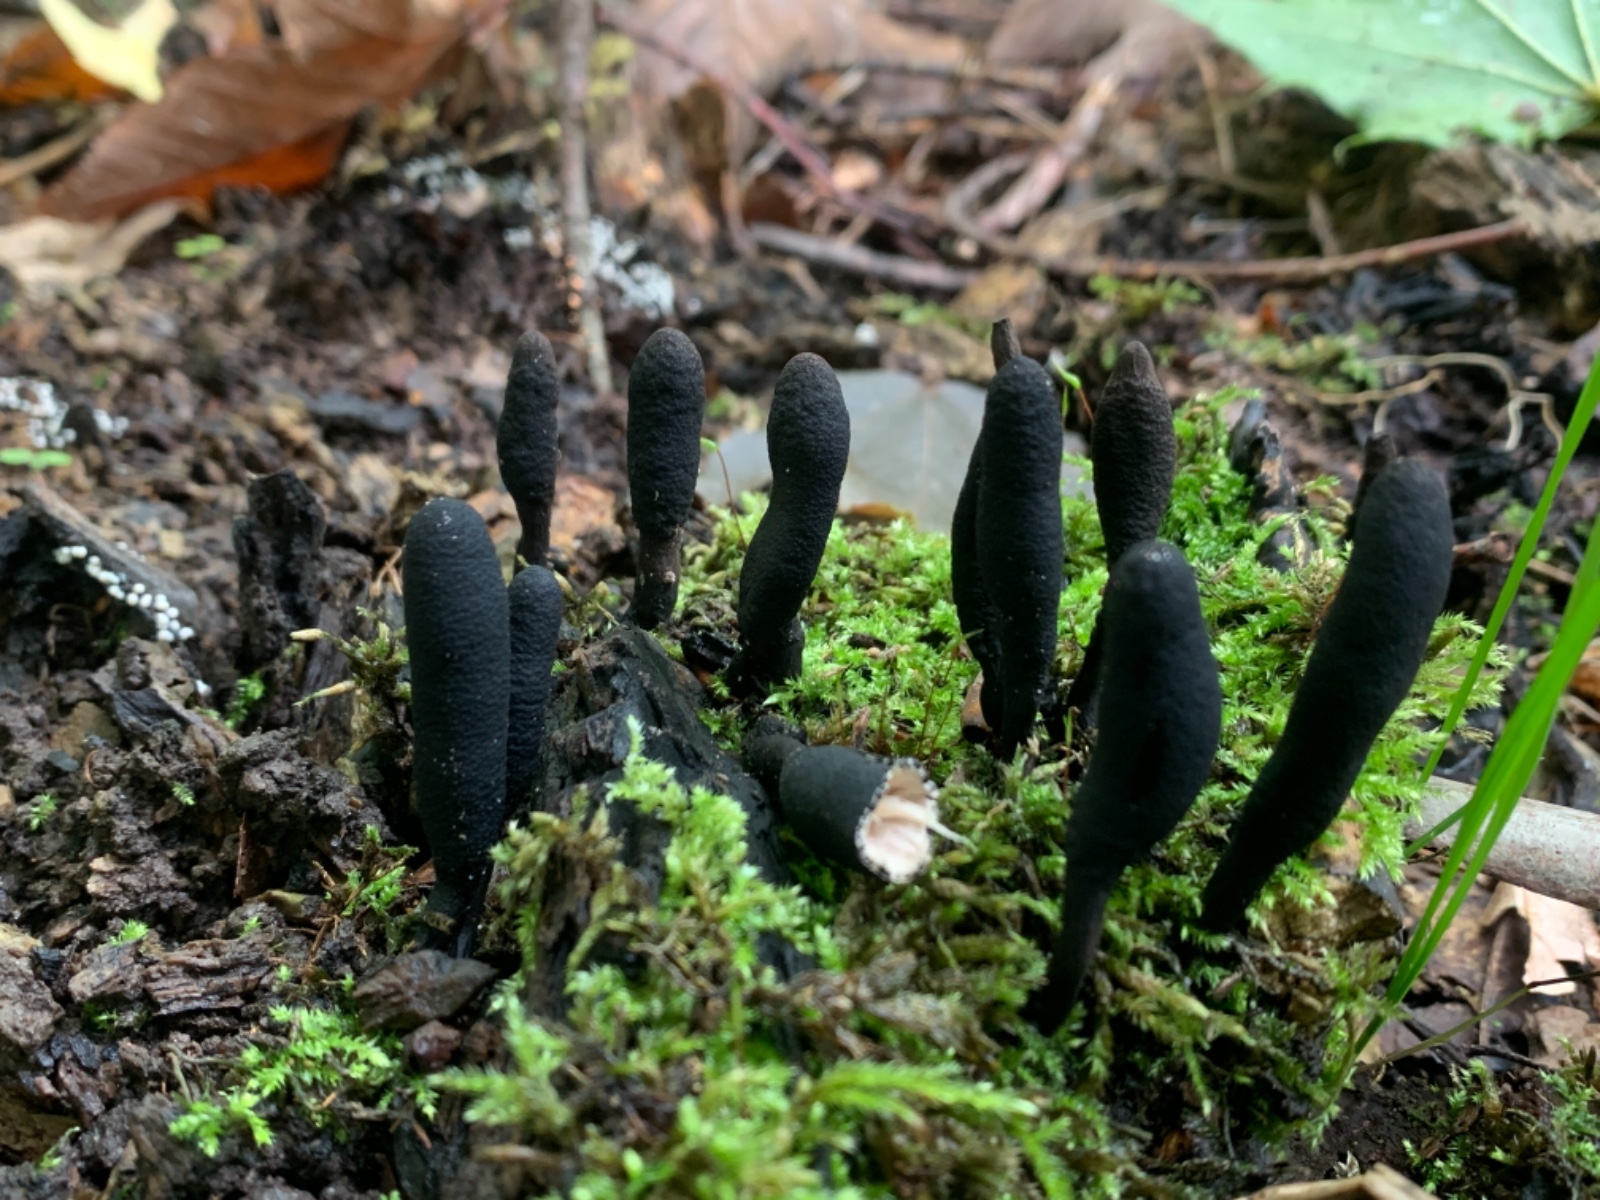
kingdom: Fungi
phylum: Ascomycota
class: Sordariomycetes
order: Xylariales
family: Xylariaceae
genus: Xylaria
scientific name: Xylaria longipes
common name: slank stødsvamp
